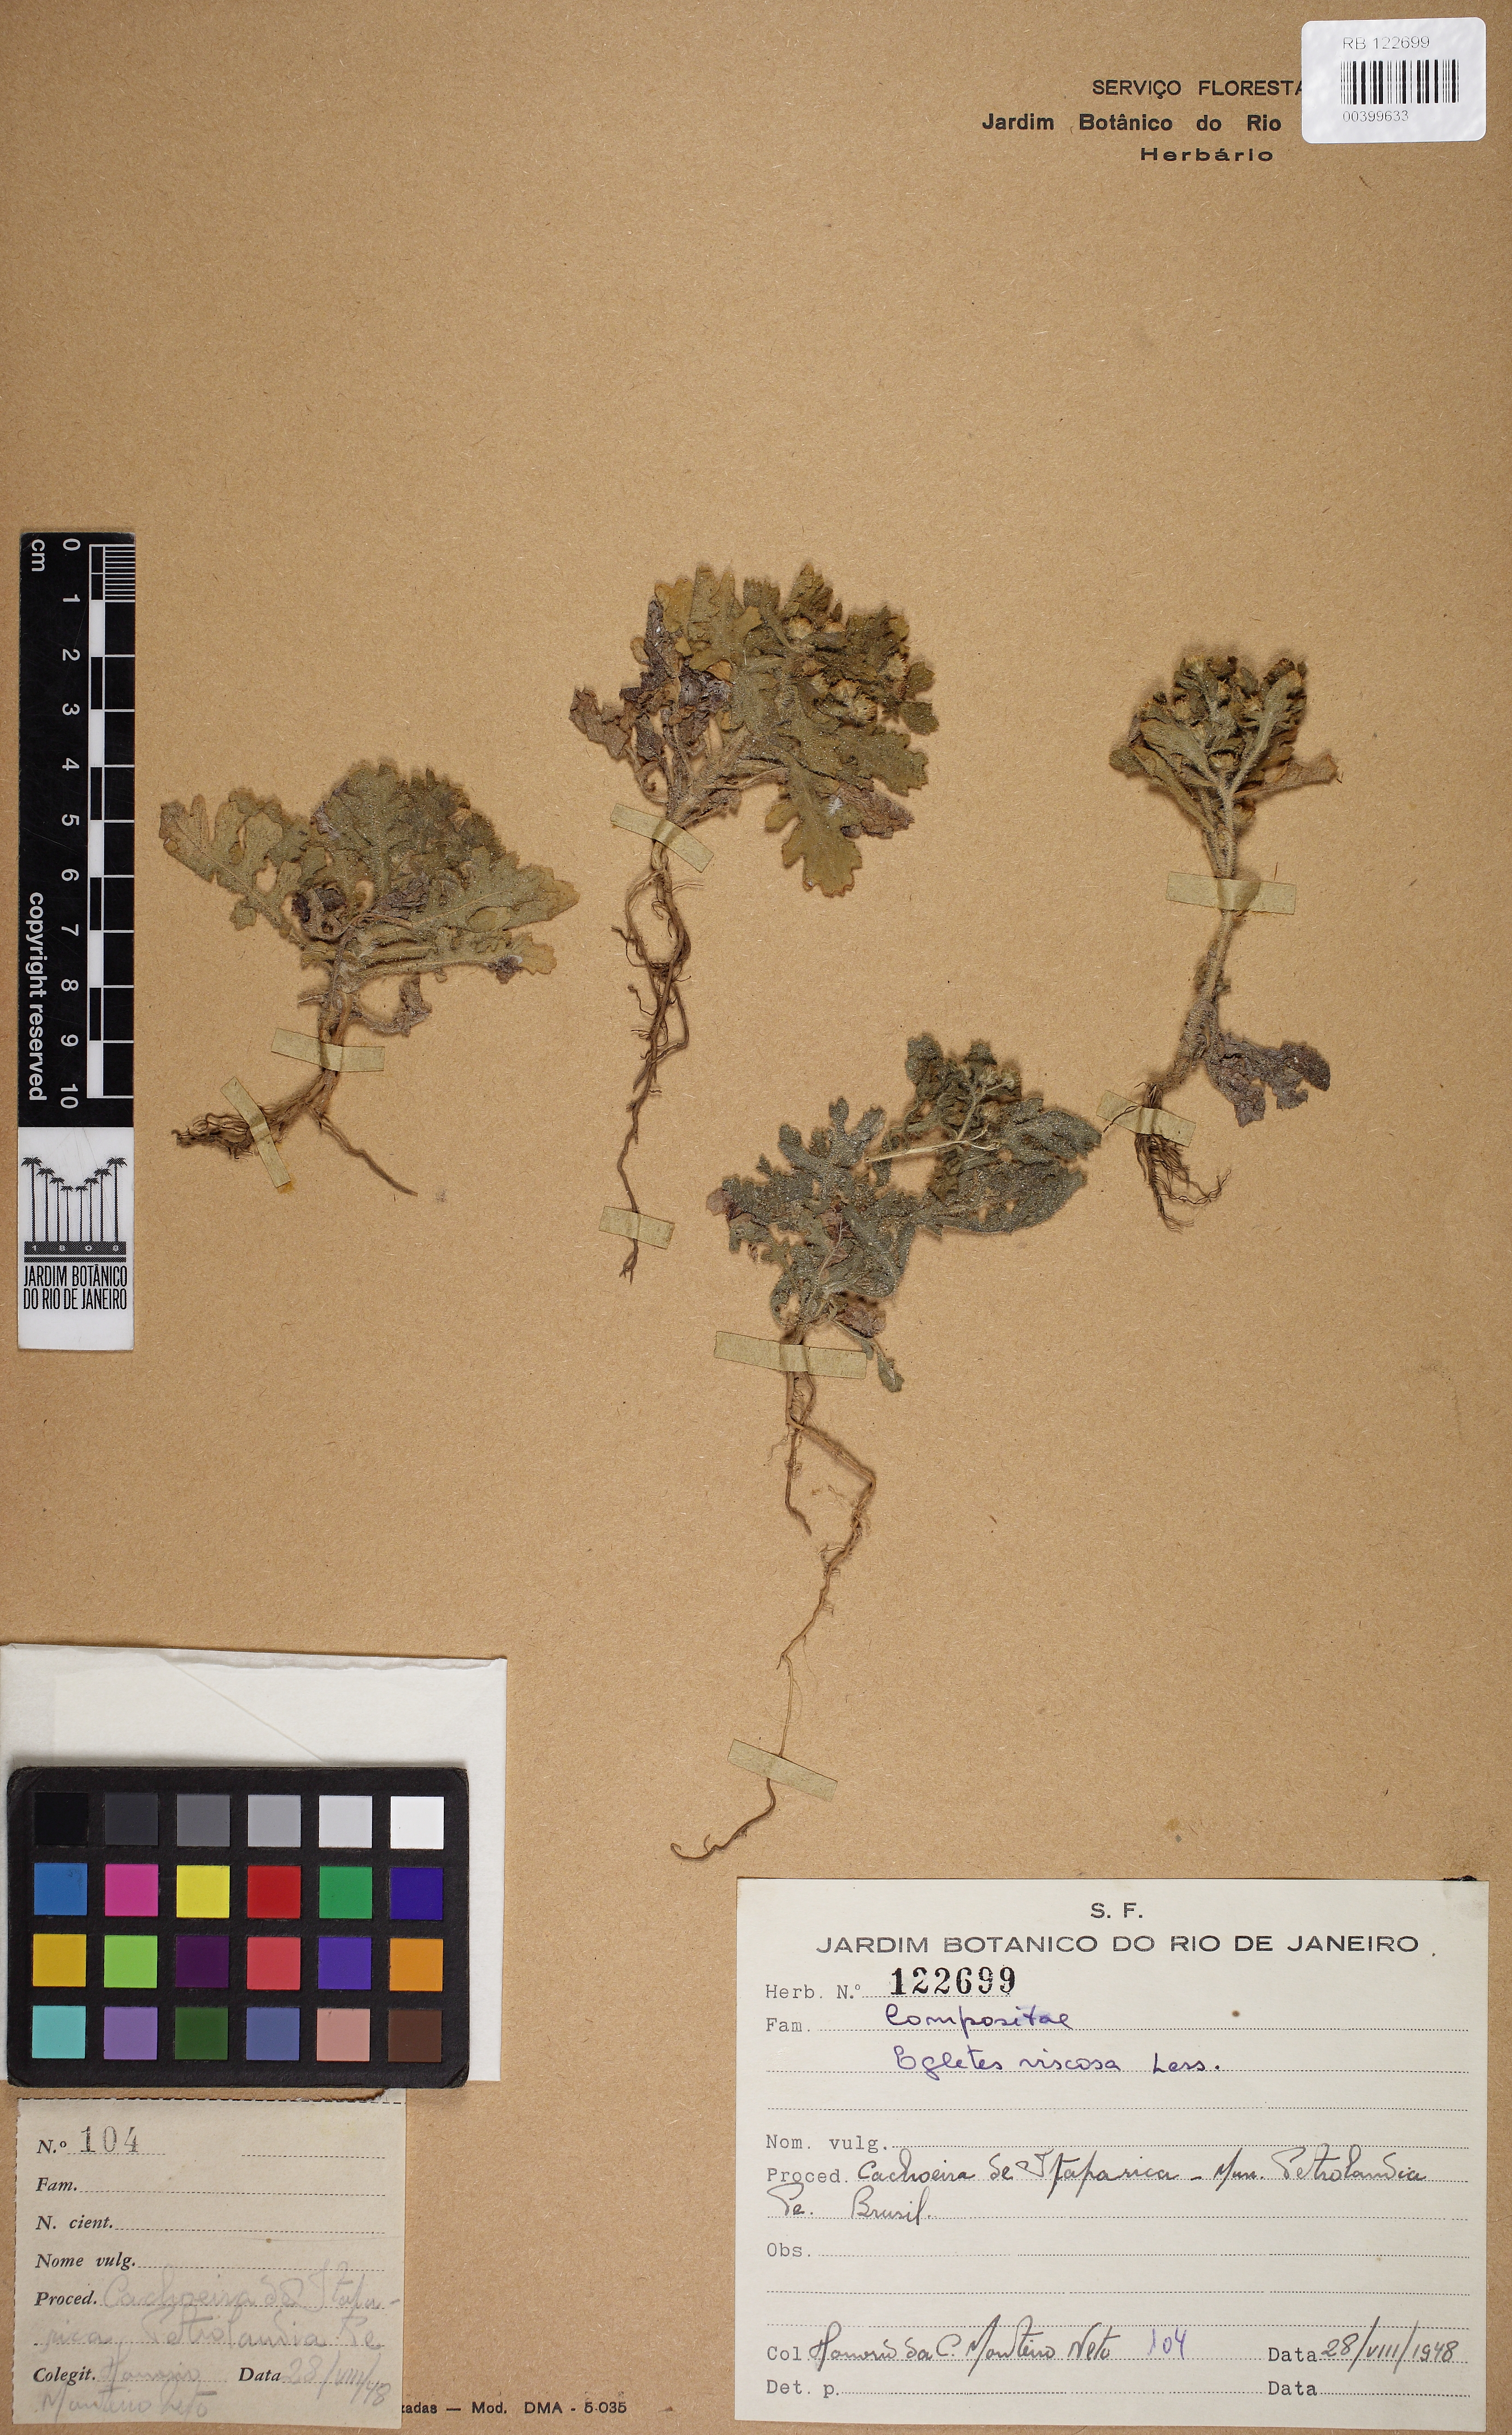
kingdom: Plantae
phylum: Tracheophyta
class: Magnoliopsida
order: Asterales
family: Asteraceae
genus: Egletes
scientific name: Egletes viscosa
